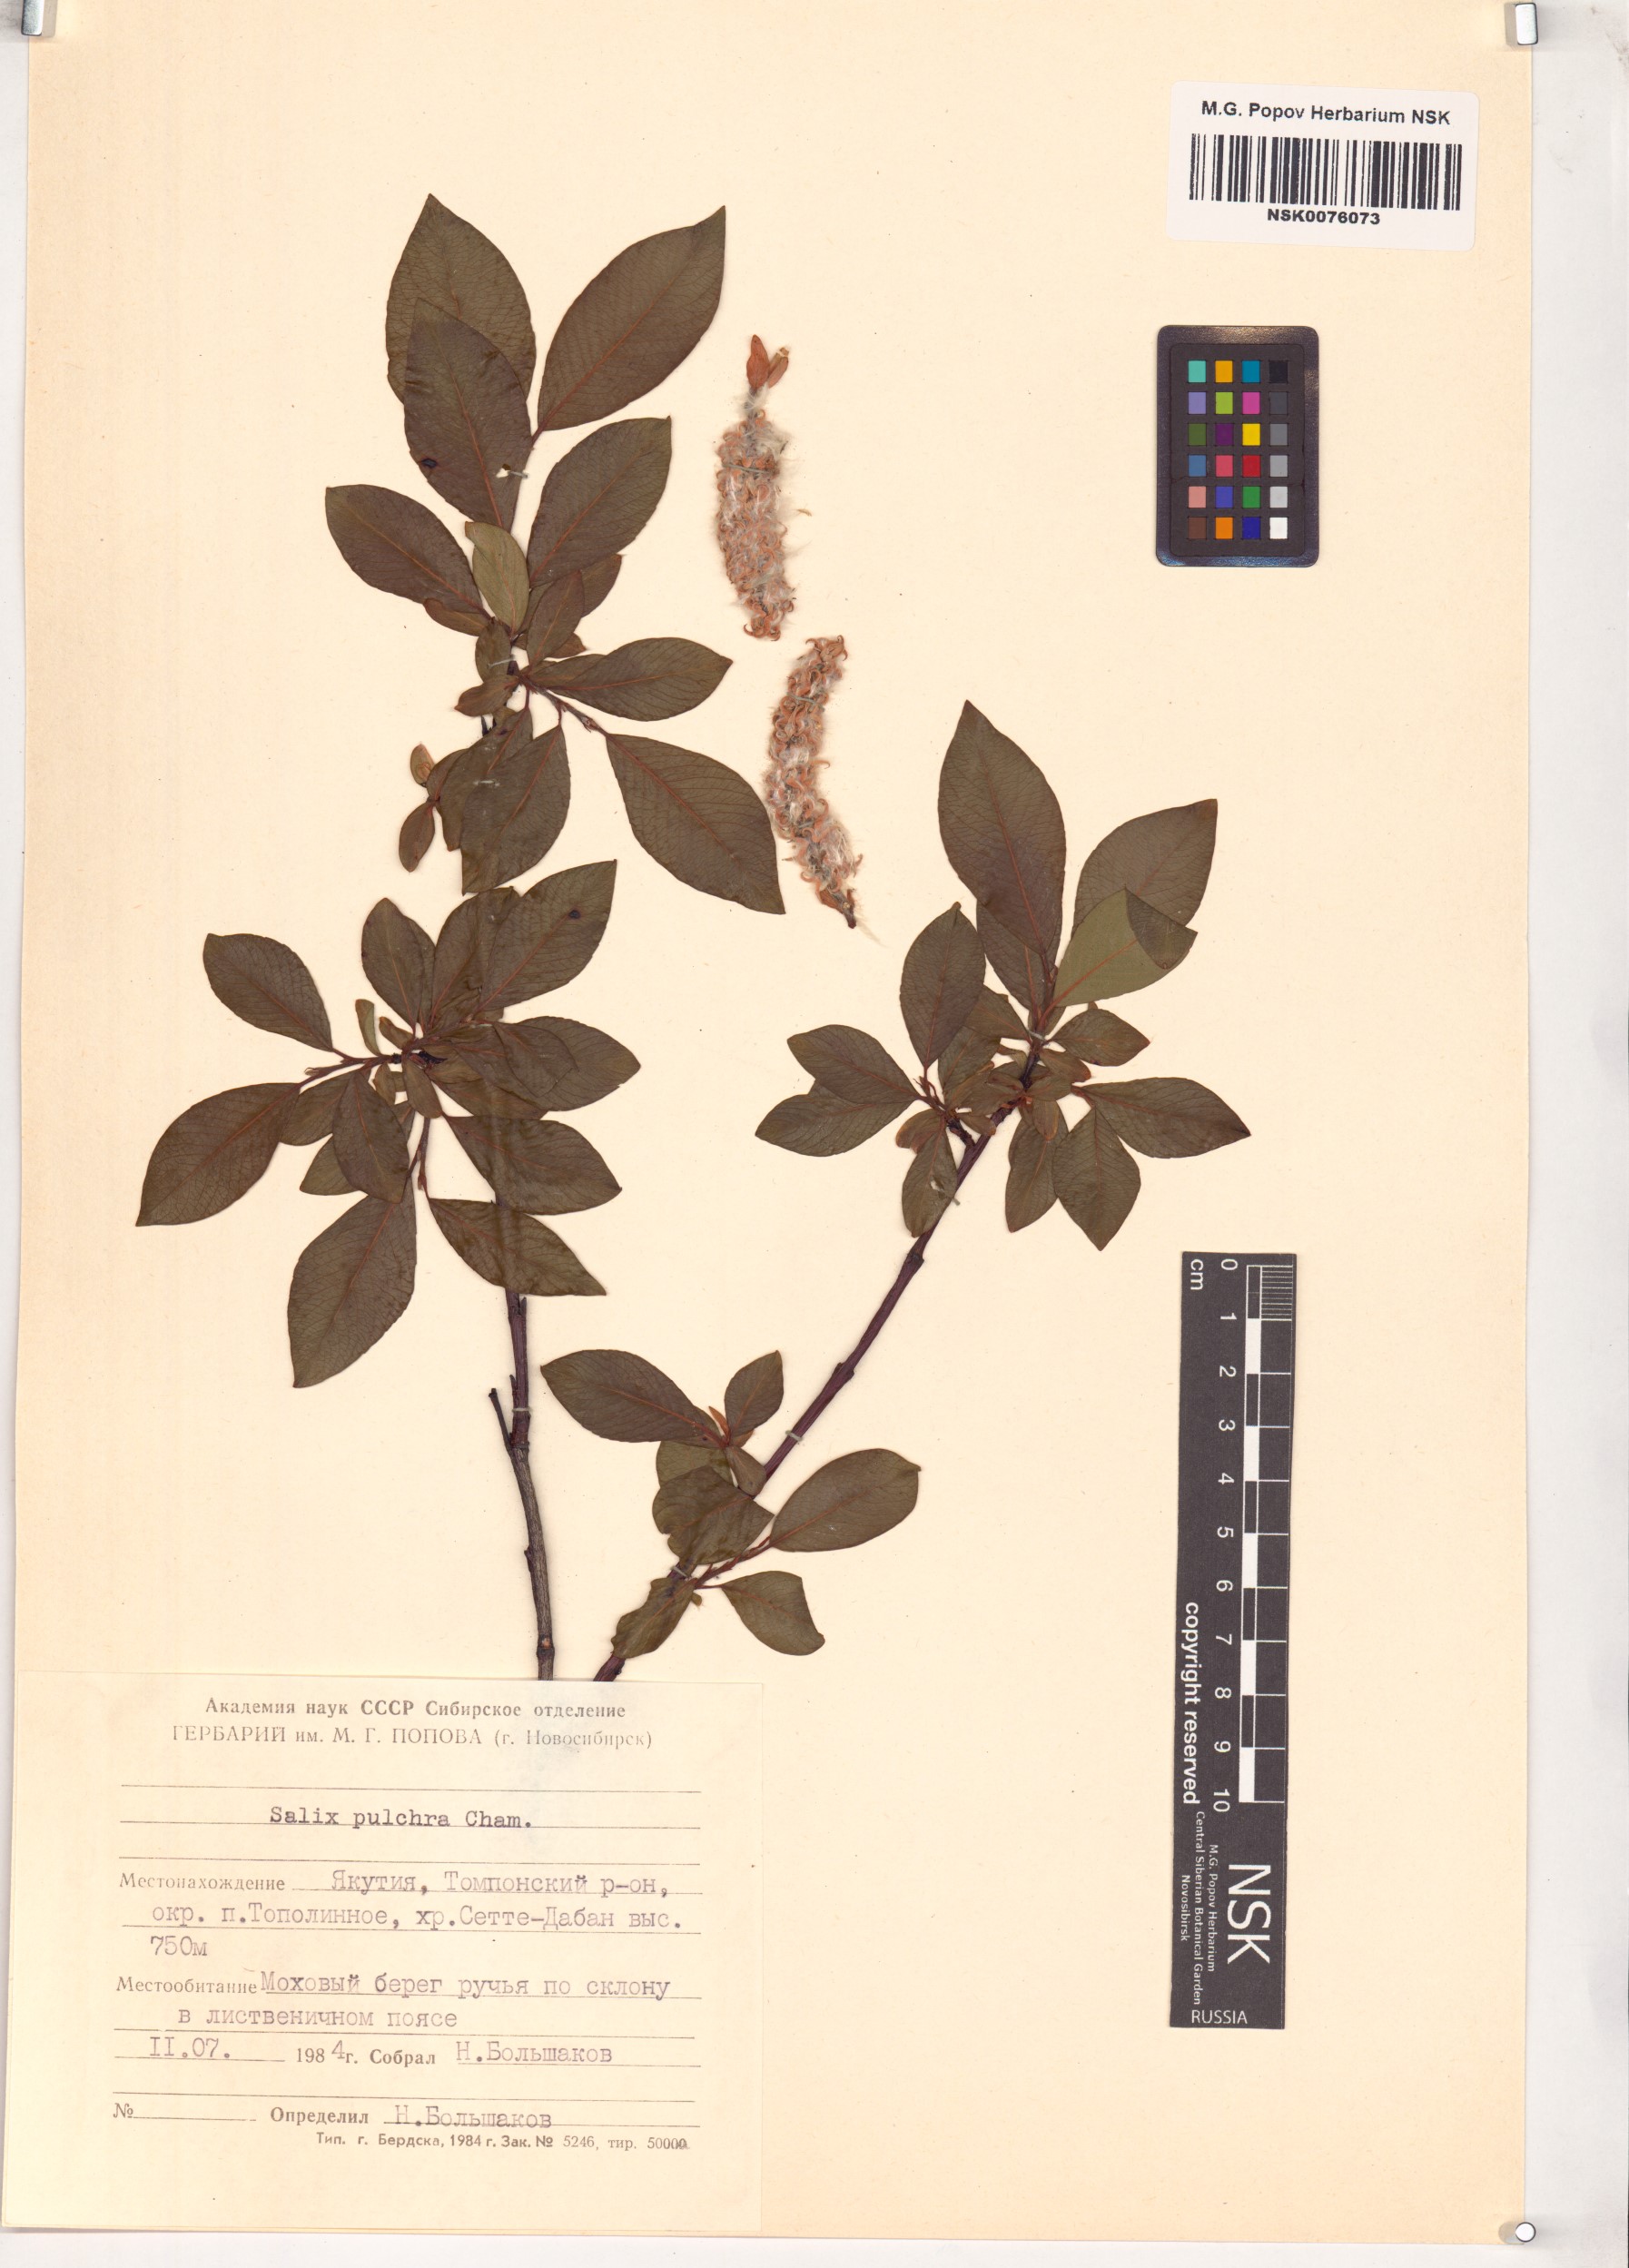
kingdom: Plantae
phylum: Tracheophyta
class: Magnoliopsida
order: Malpighiales
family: Salicaceae
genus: Salix
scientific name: Salix pulchra
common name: Diamond-leaved willow
